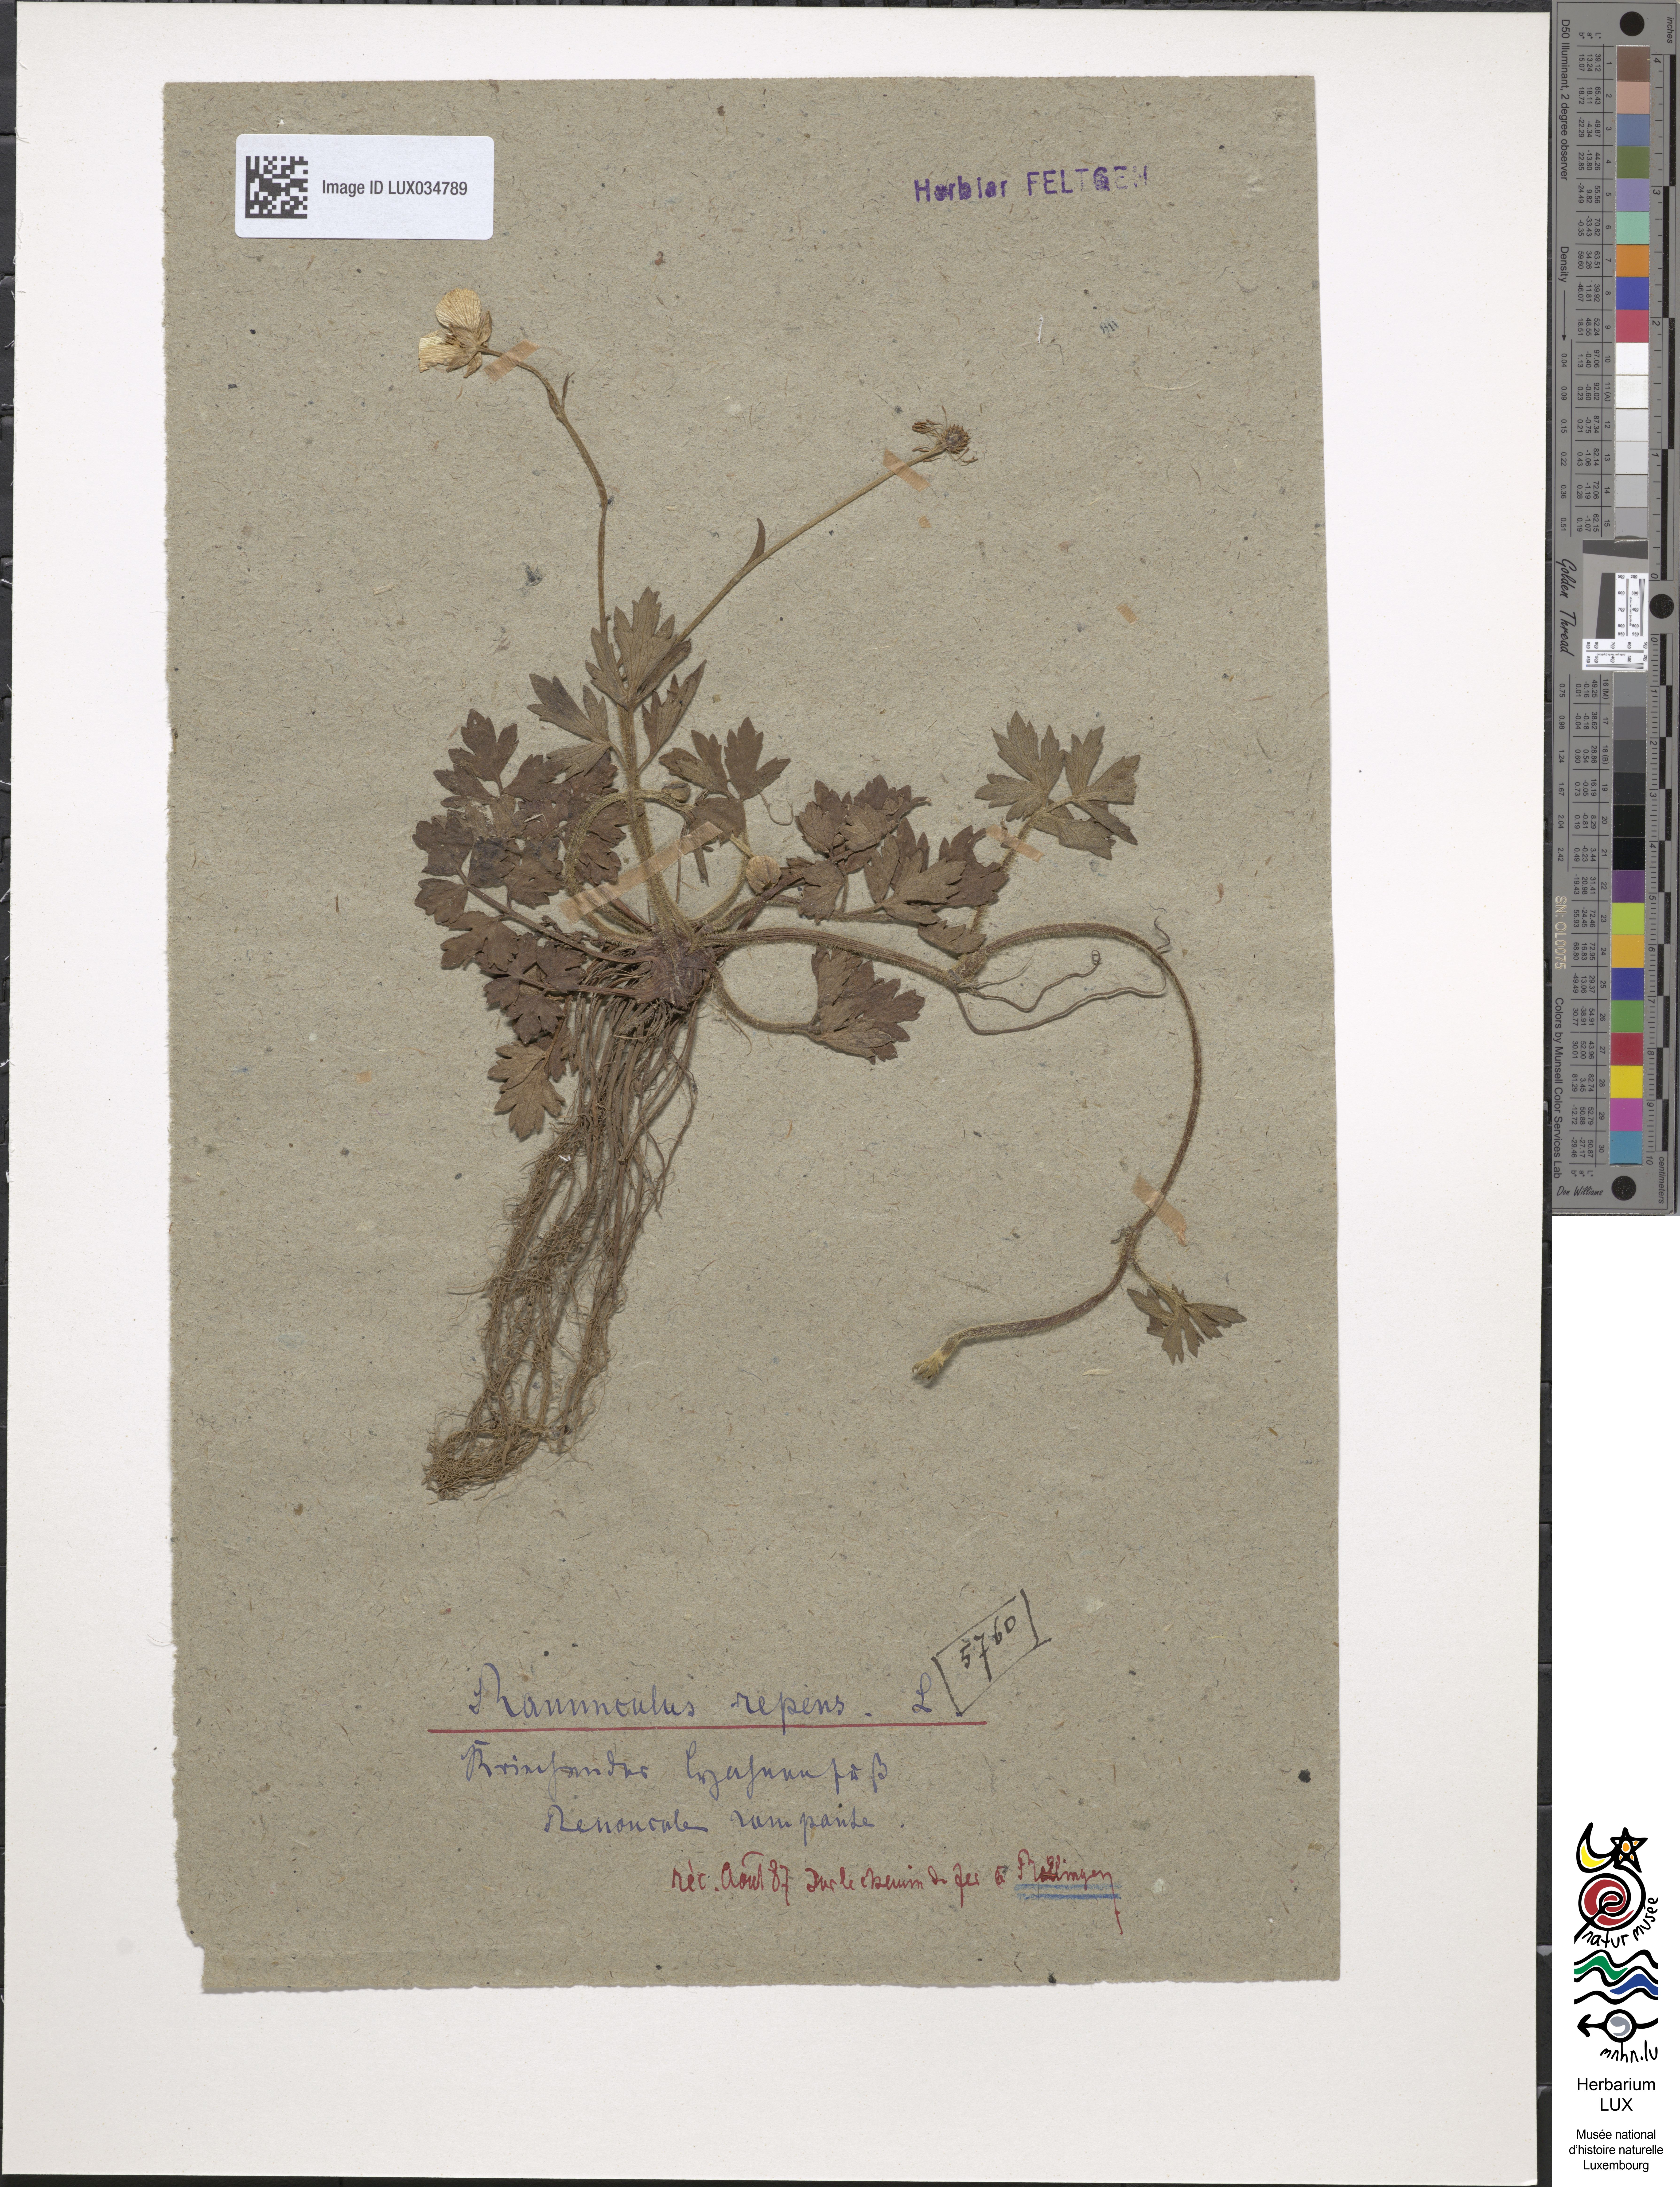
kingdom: Plantae
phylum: Tracheophyta
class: Magnoliopsida
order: Ranunculales
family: Ranunculaceae
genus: Ranunculus
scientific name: Ranunculus repens
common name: Creeping buttercup
